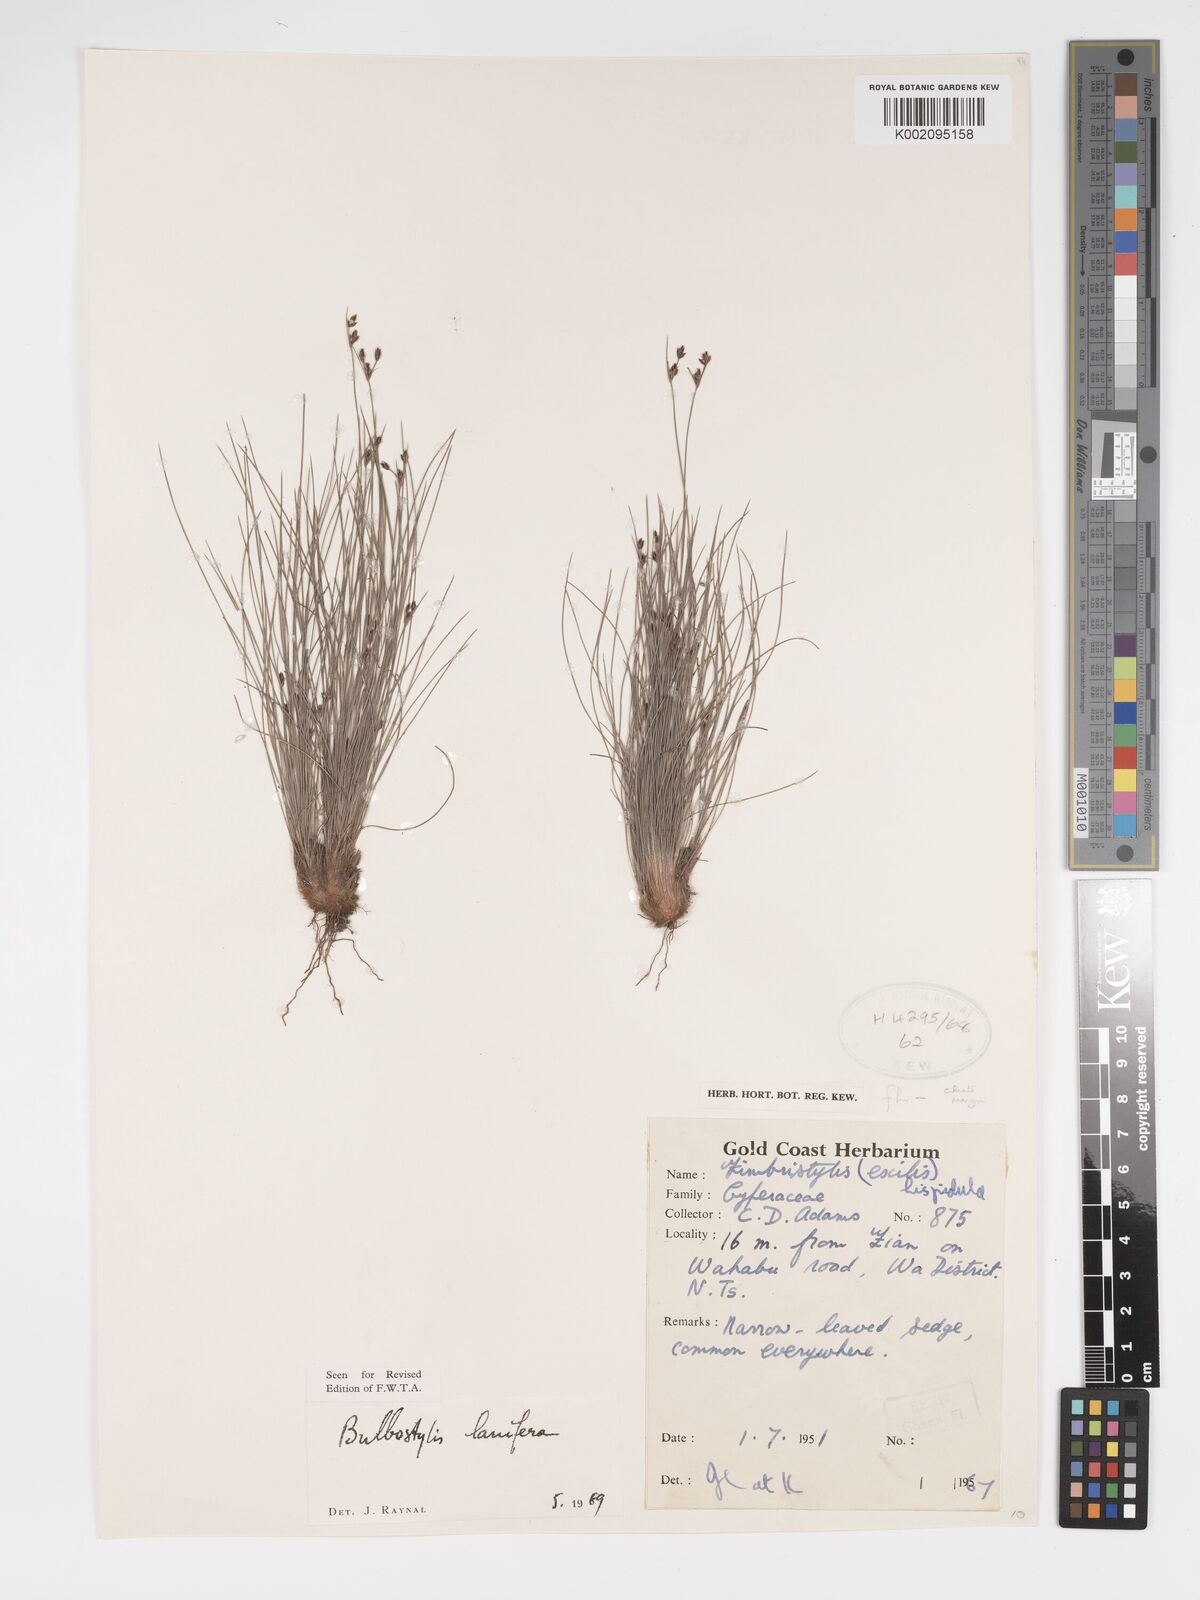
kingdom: Plantae
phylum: Tracheophyta
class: Liliopsida
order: Poales
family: Cyperaceae
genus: Bulbostylis
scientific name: Bulbostylis lanifera
